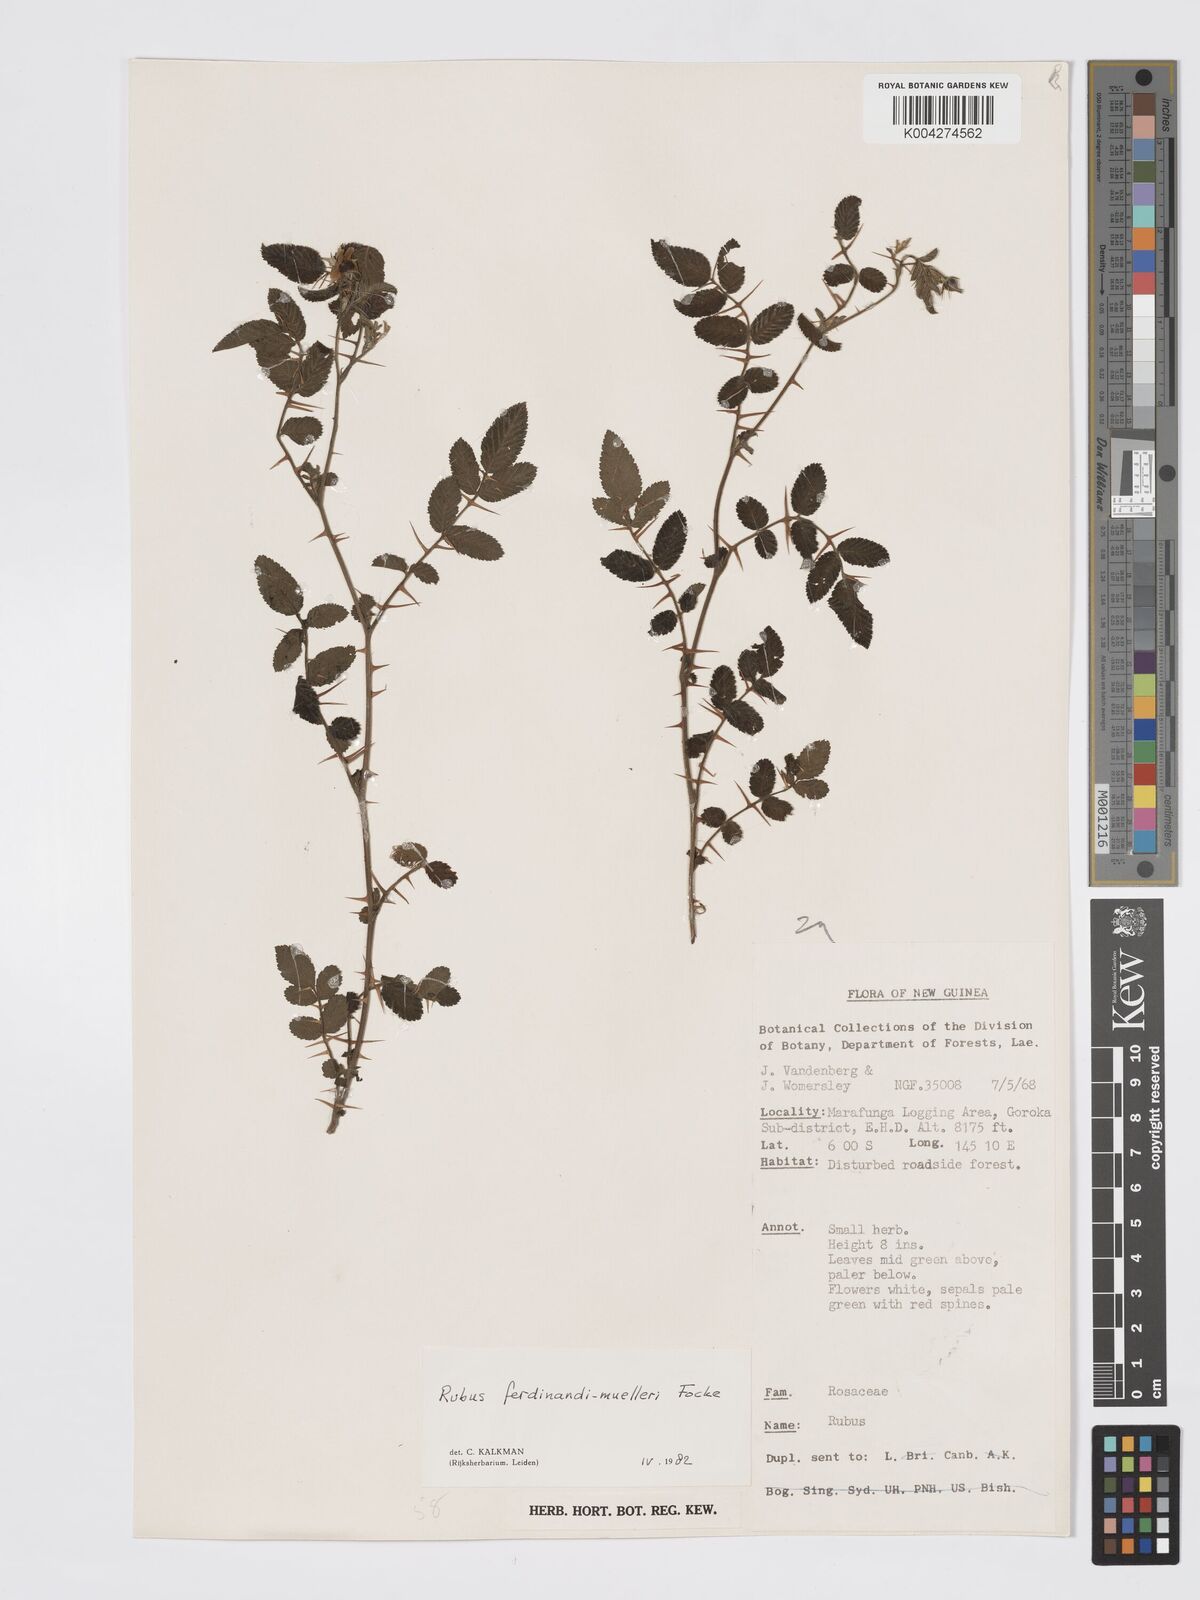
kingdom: Plantae
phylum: Tracheophyta
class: Magnoliopsida
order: Rosales
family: Rosaceae
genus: Rubus
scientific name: Rubus ferdinandimuelleri
